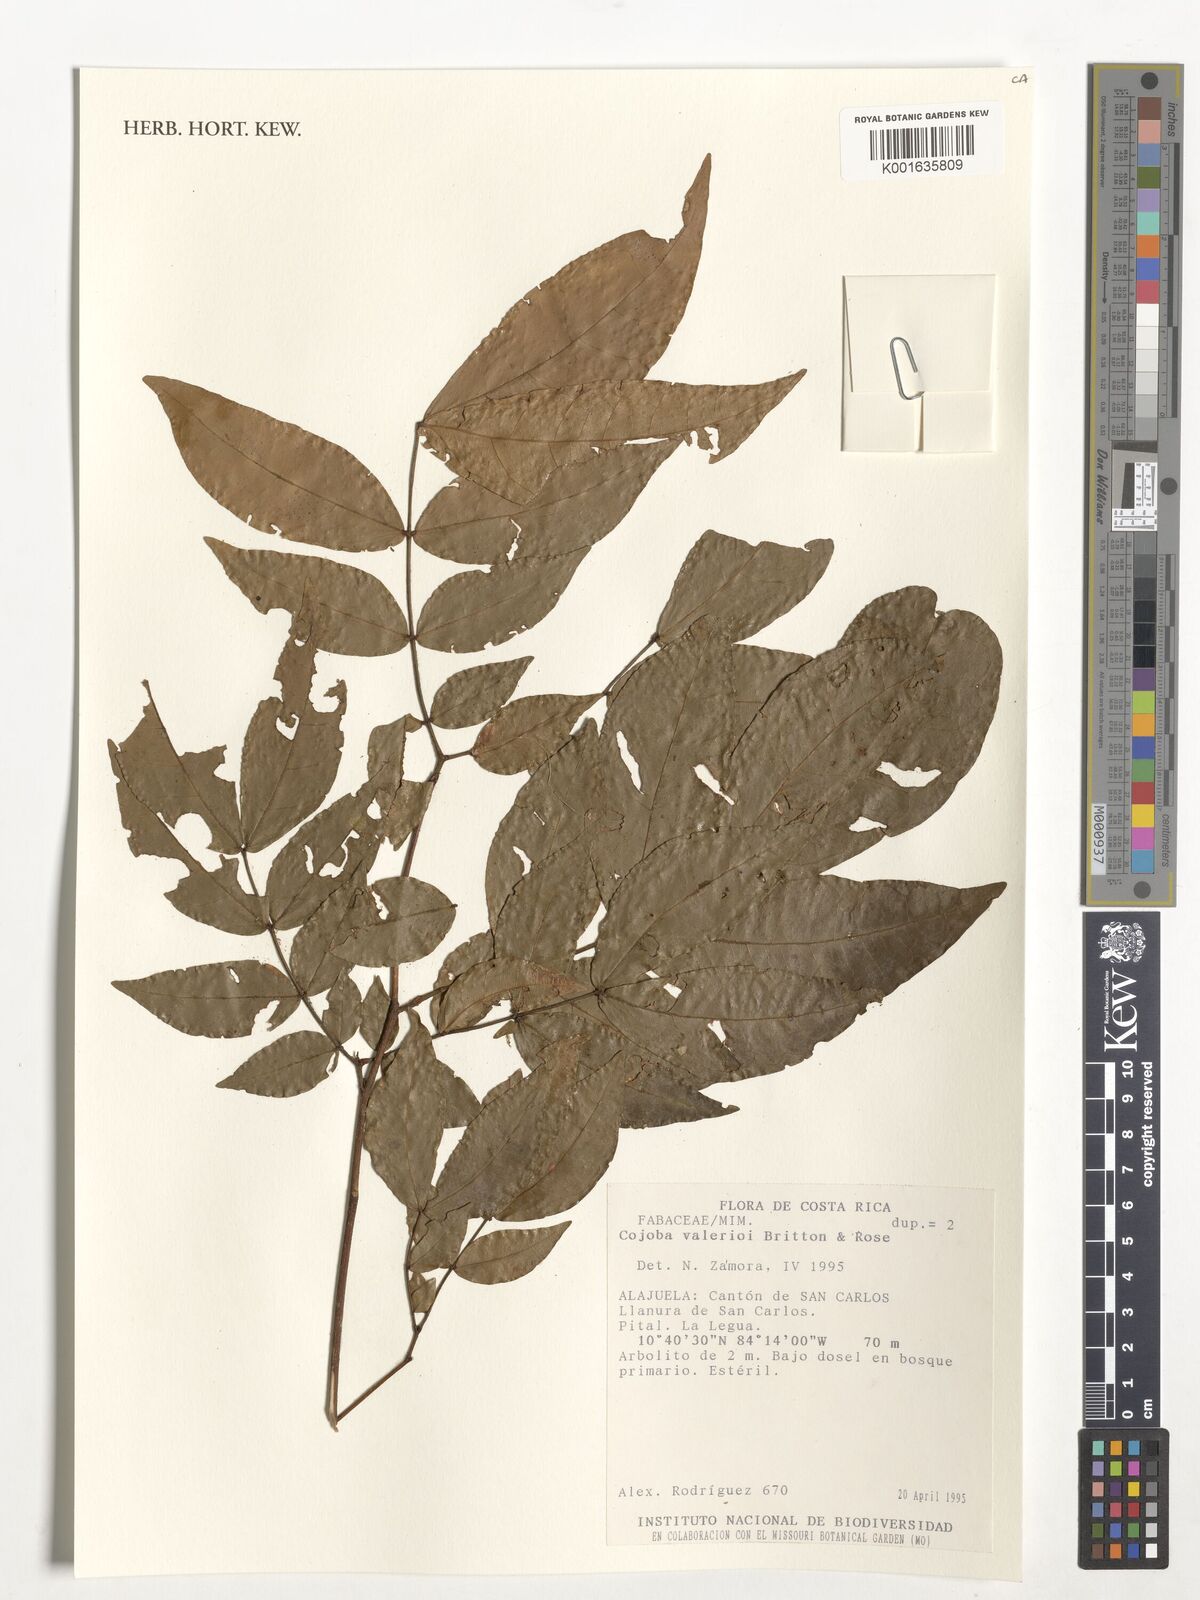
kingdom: Plantae
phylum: Tracheophyta
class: Magnoliopsida
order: Fabales
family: Fabaceae
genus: Cojoba
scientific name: Cojoba catenata
